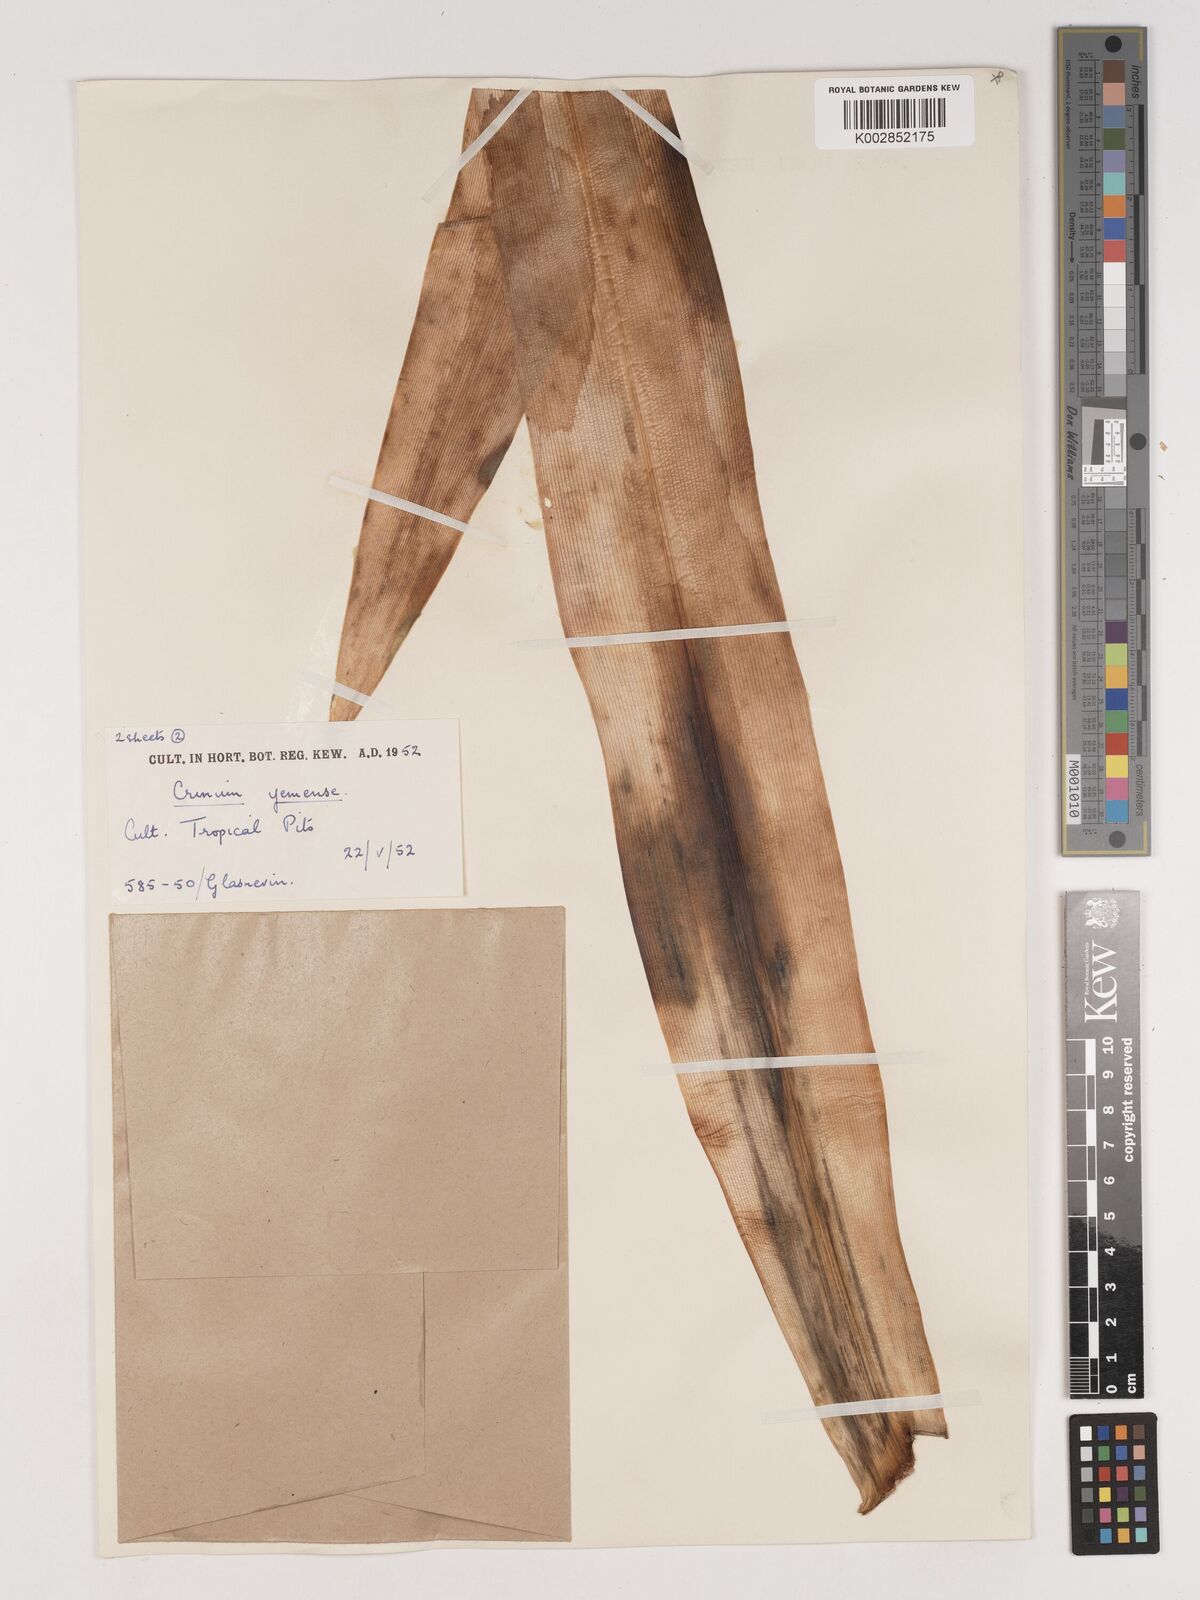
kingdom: Plantae
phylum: Tracheophyta
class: Liliopsida
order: Asparagales
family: Amaryllidaceae
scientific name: Amaryllidaceae
